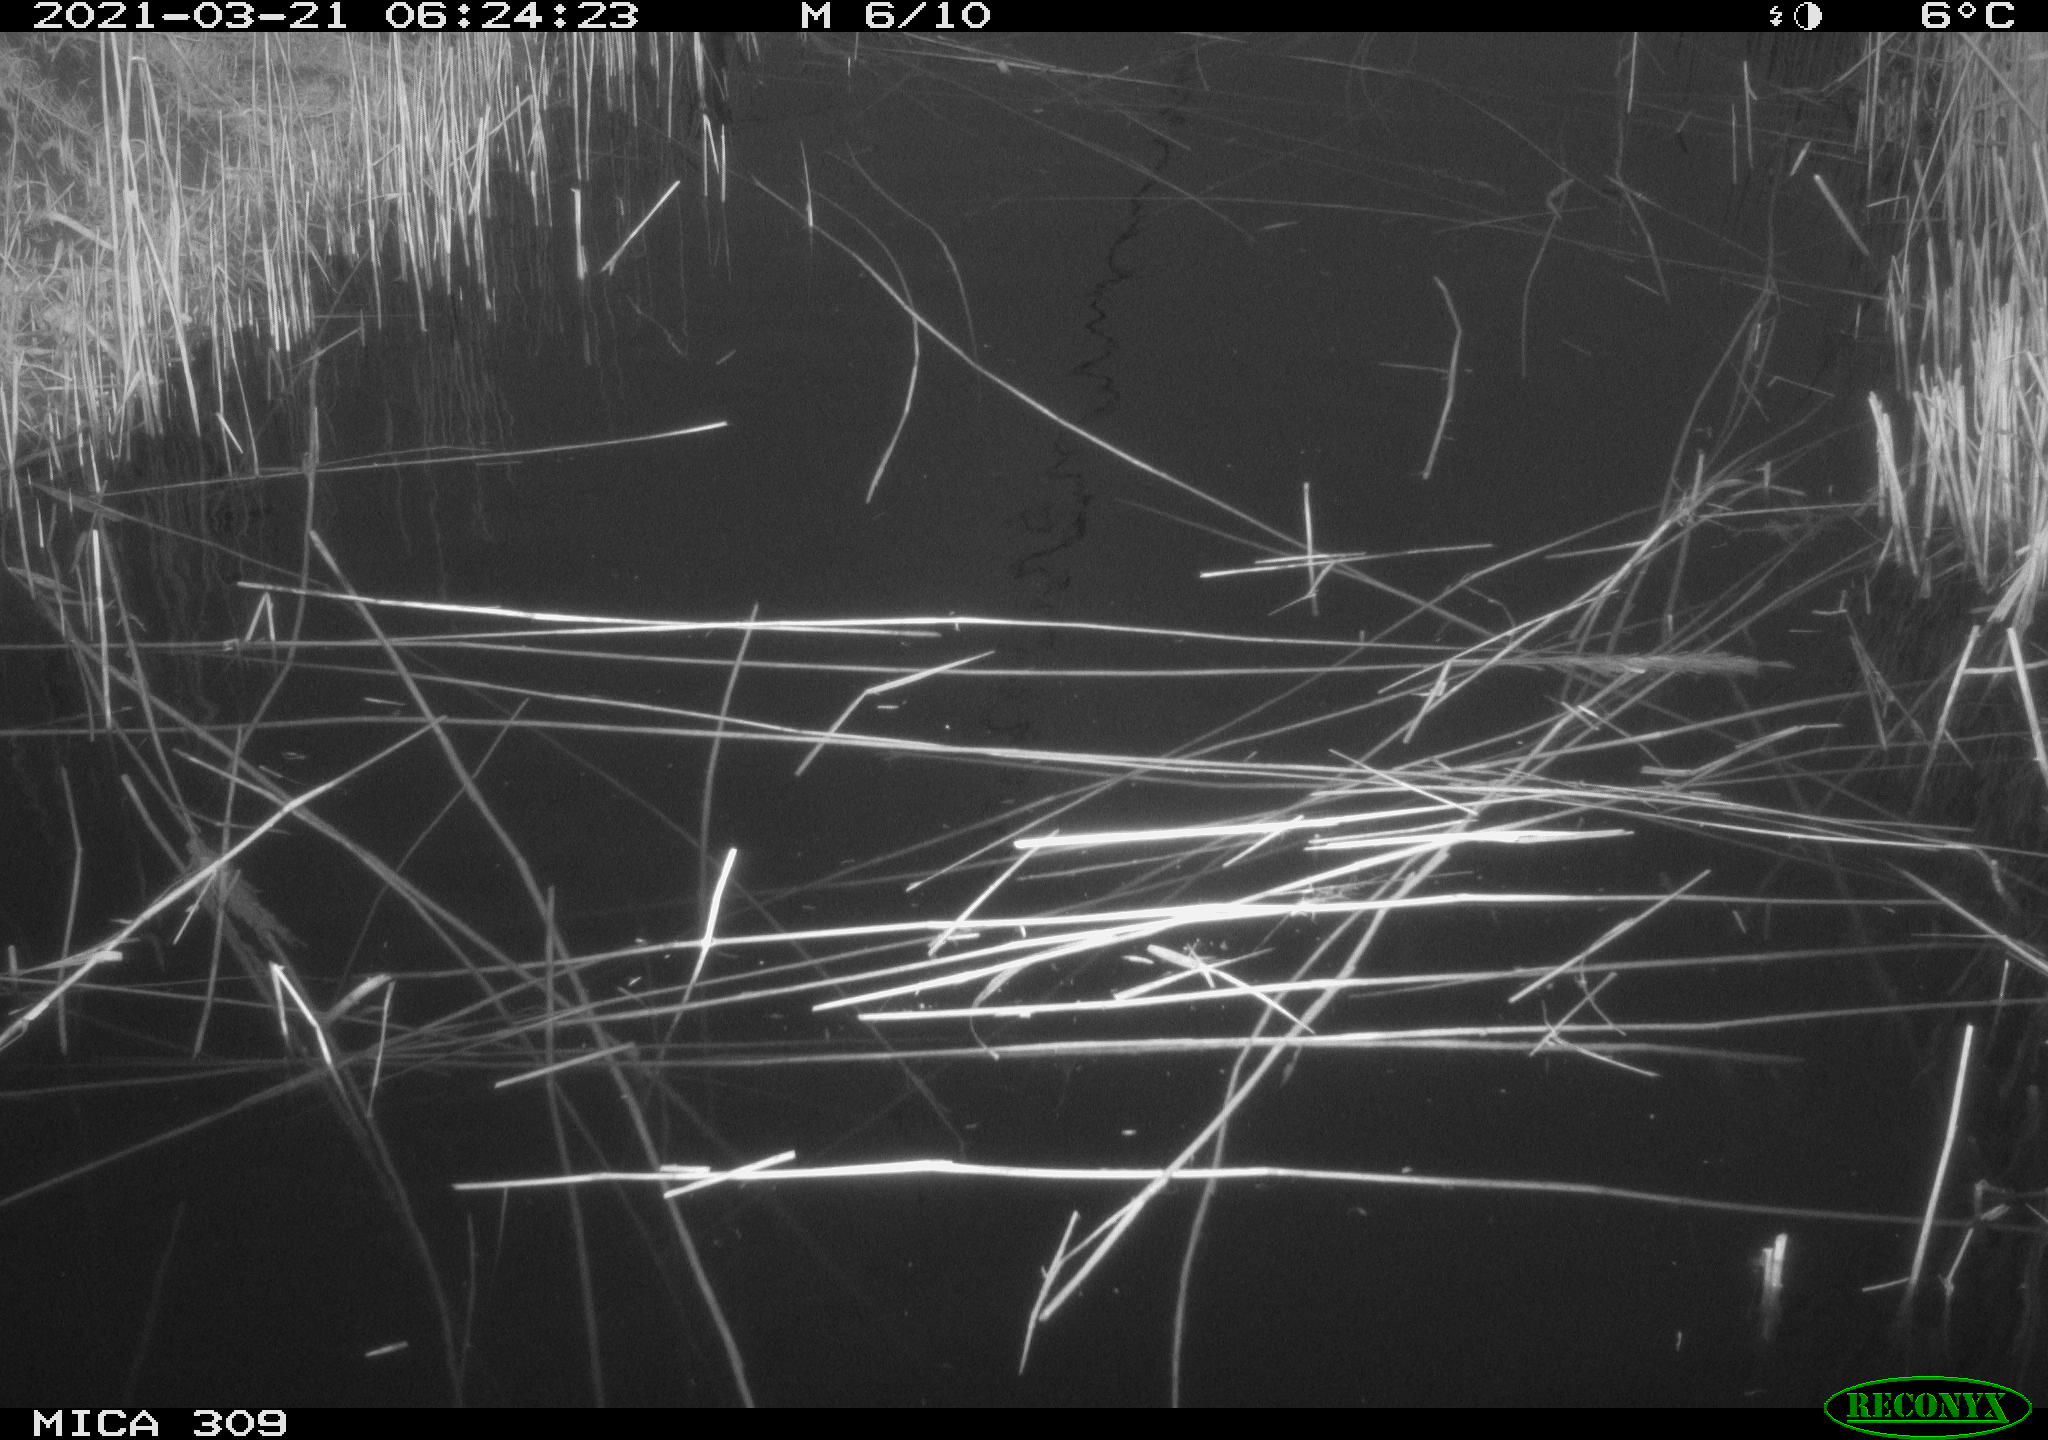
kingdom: Animalia
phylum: Chordata
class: Aves
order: Gruiformes
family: Rallidae
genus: Fulica
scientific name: Fulica atra
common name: Eurasian coot
